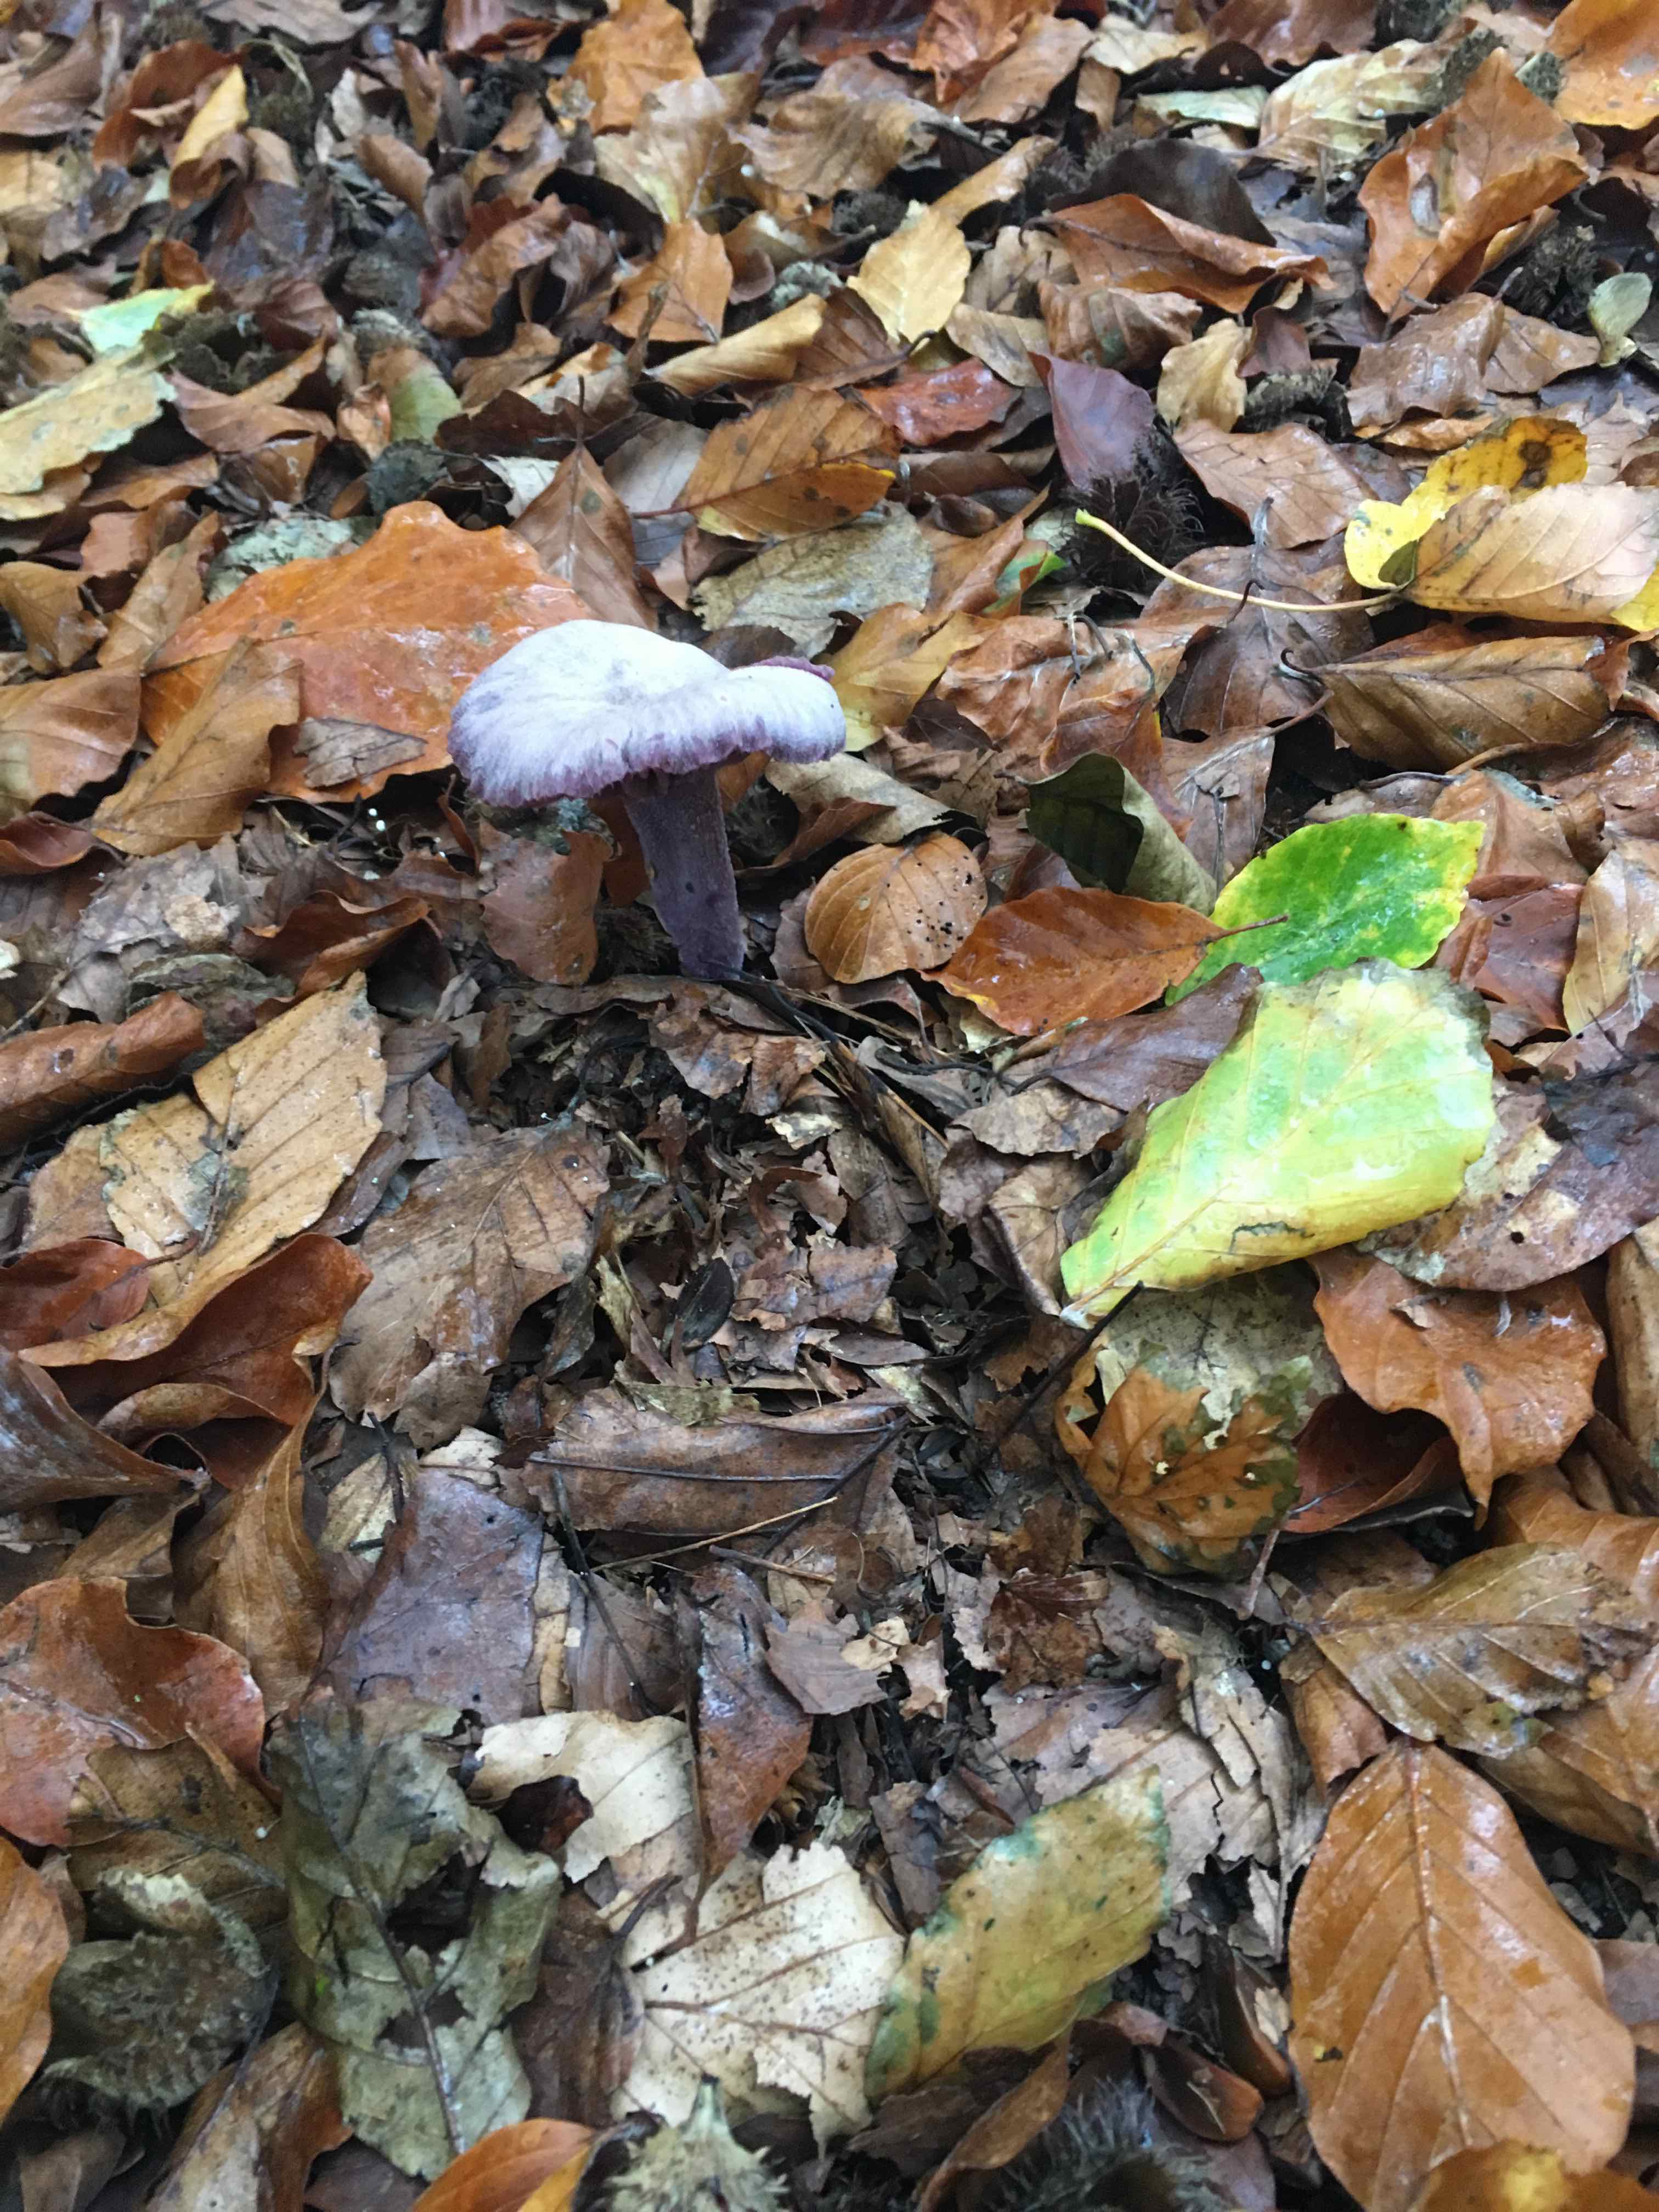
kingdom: Fungi
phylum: Basidiomycota
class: Agaricomycetes
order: Agaricales
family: Hydnangiaceae
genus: Laccaria
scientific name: Laccaria amethystina
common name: violet ametysthat
